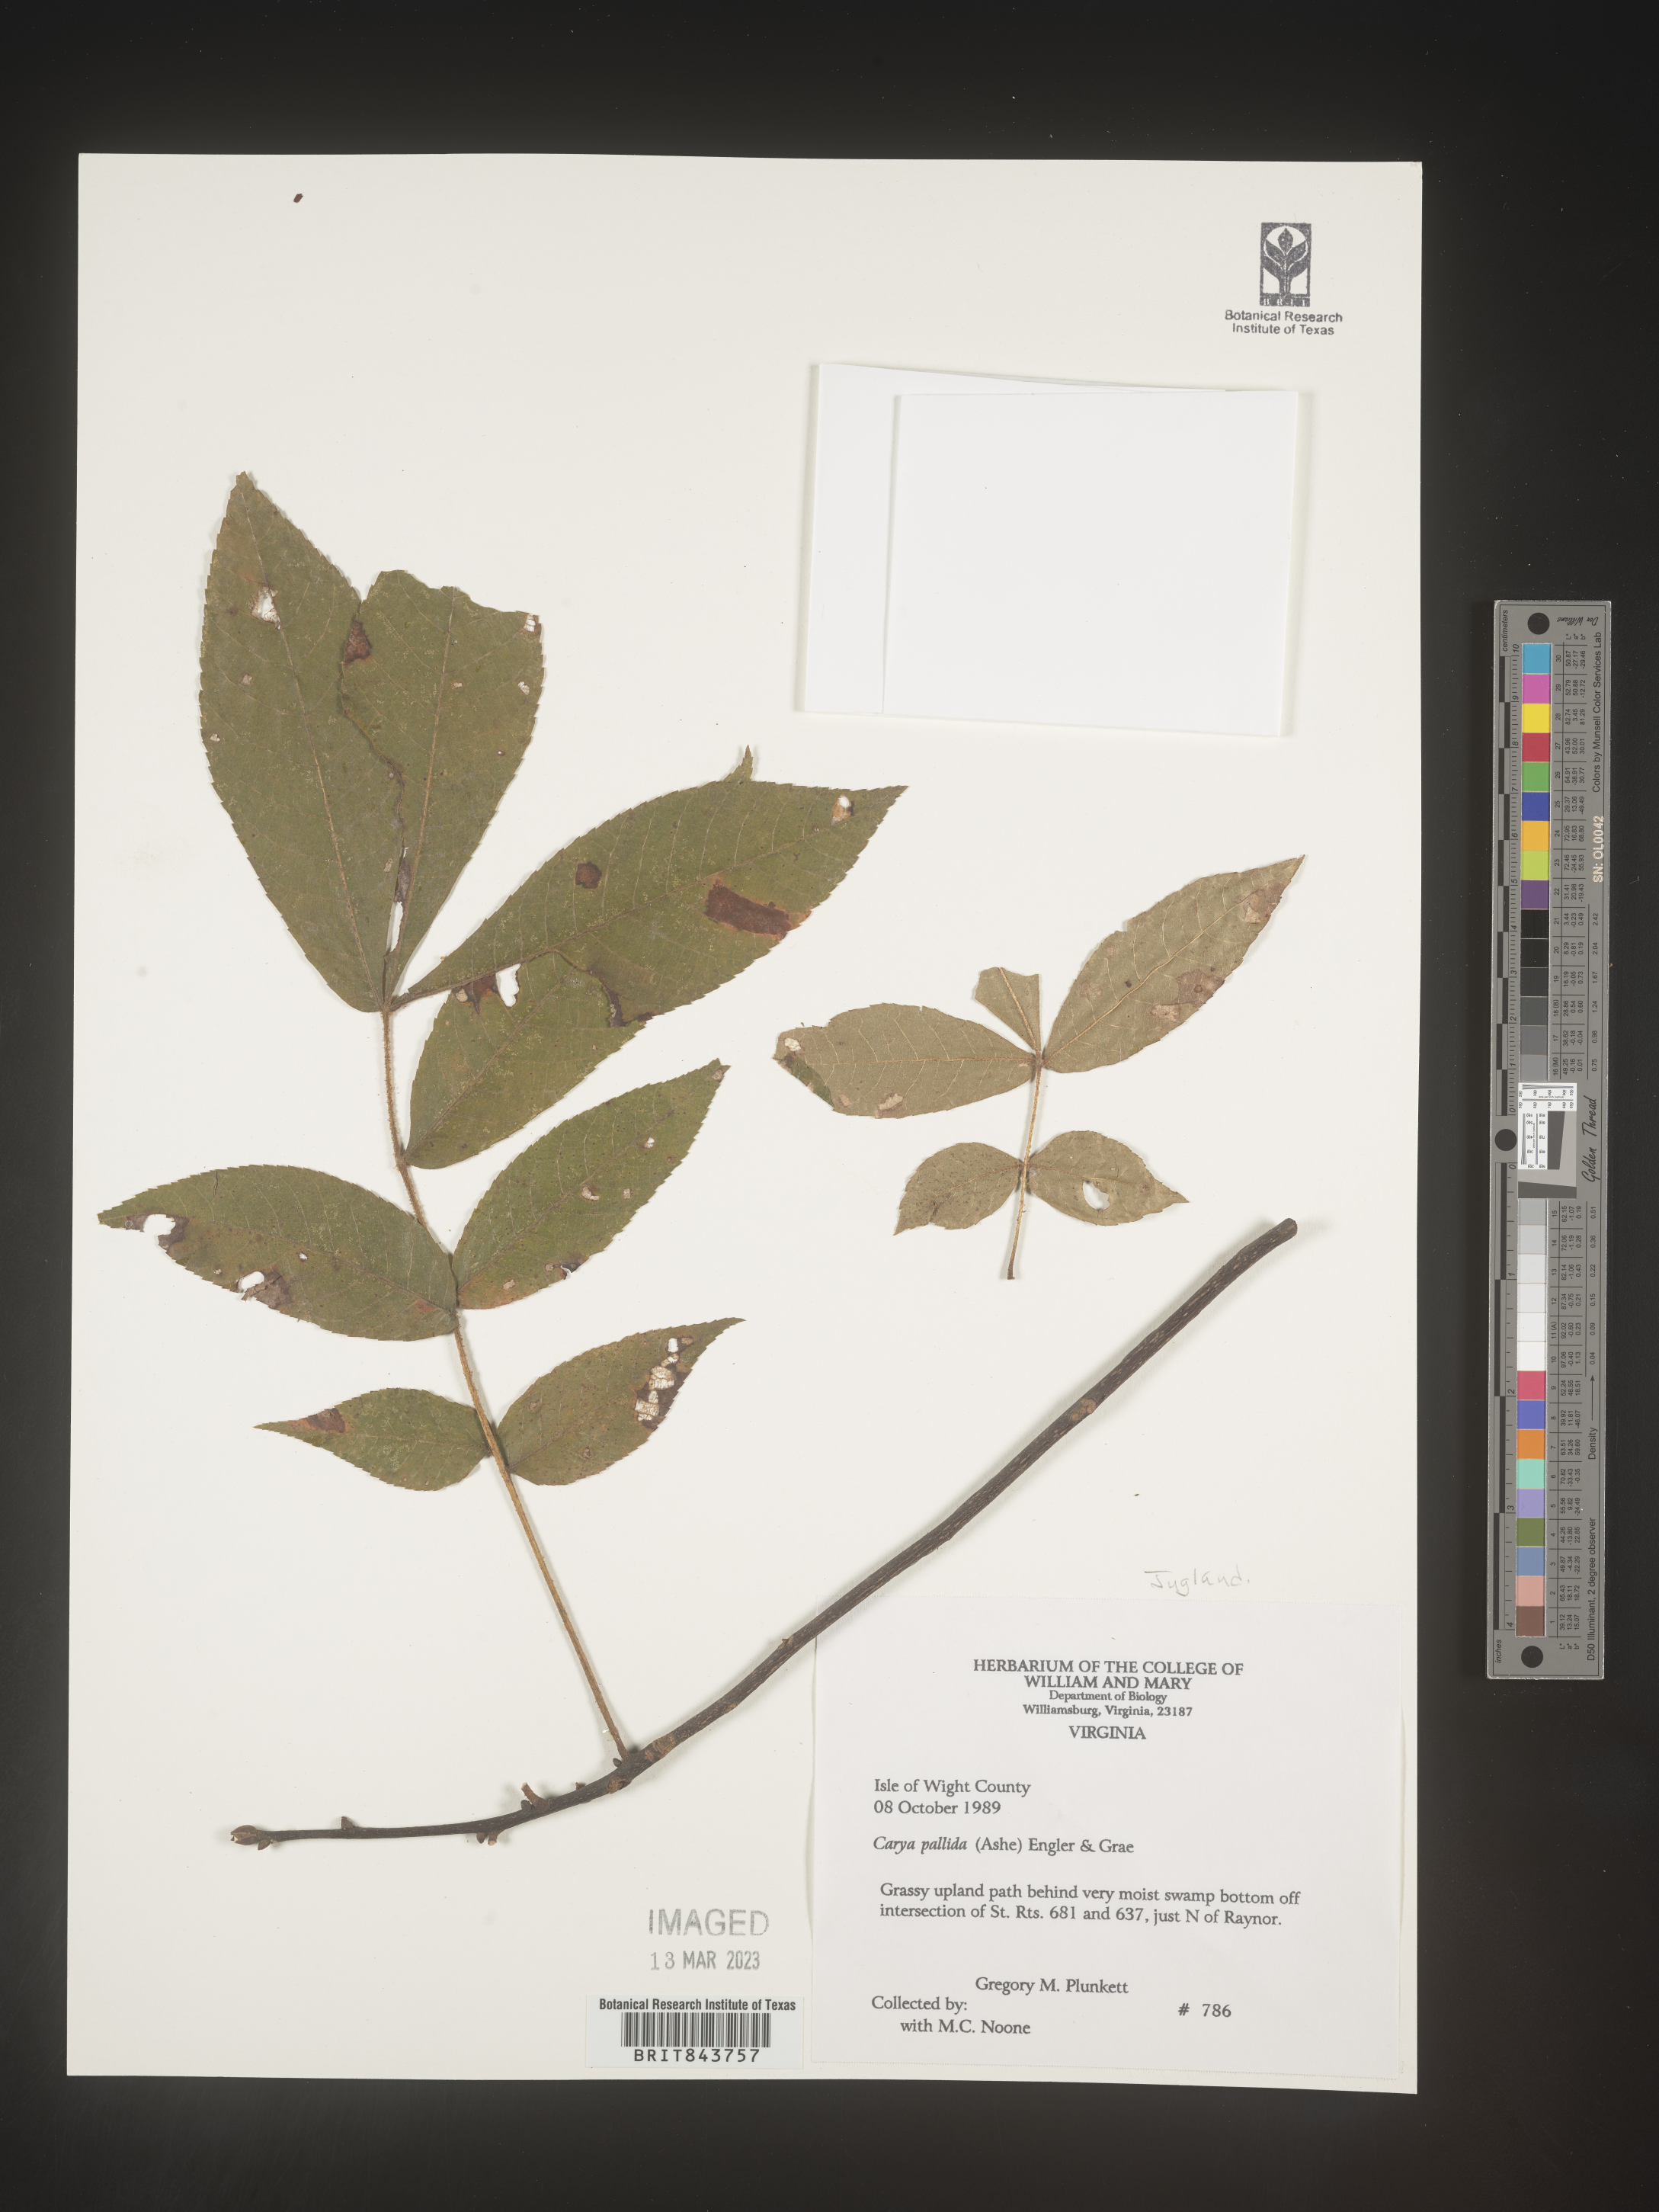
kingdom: Plantae
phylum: Tracheophyta
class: Magnoliopsida
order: Fagales
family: Juglandaceae
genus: Carya
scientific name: Carya pallida
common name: Sand hickory
